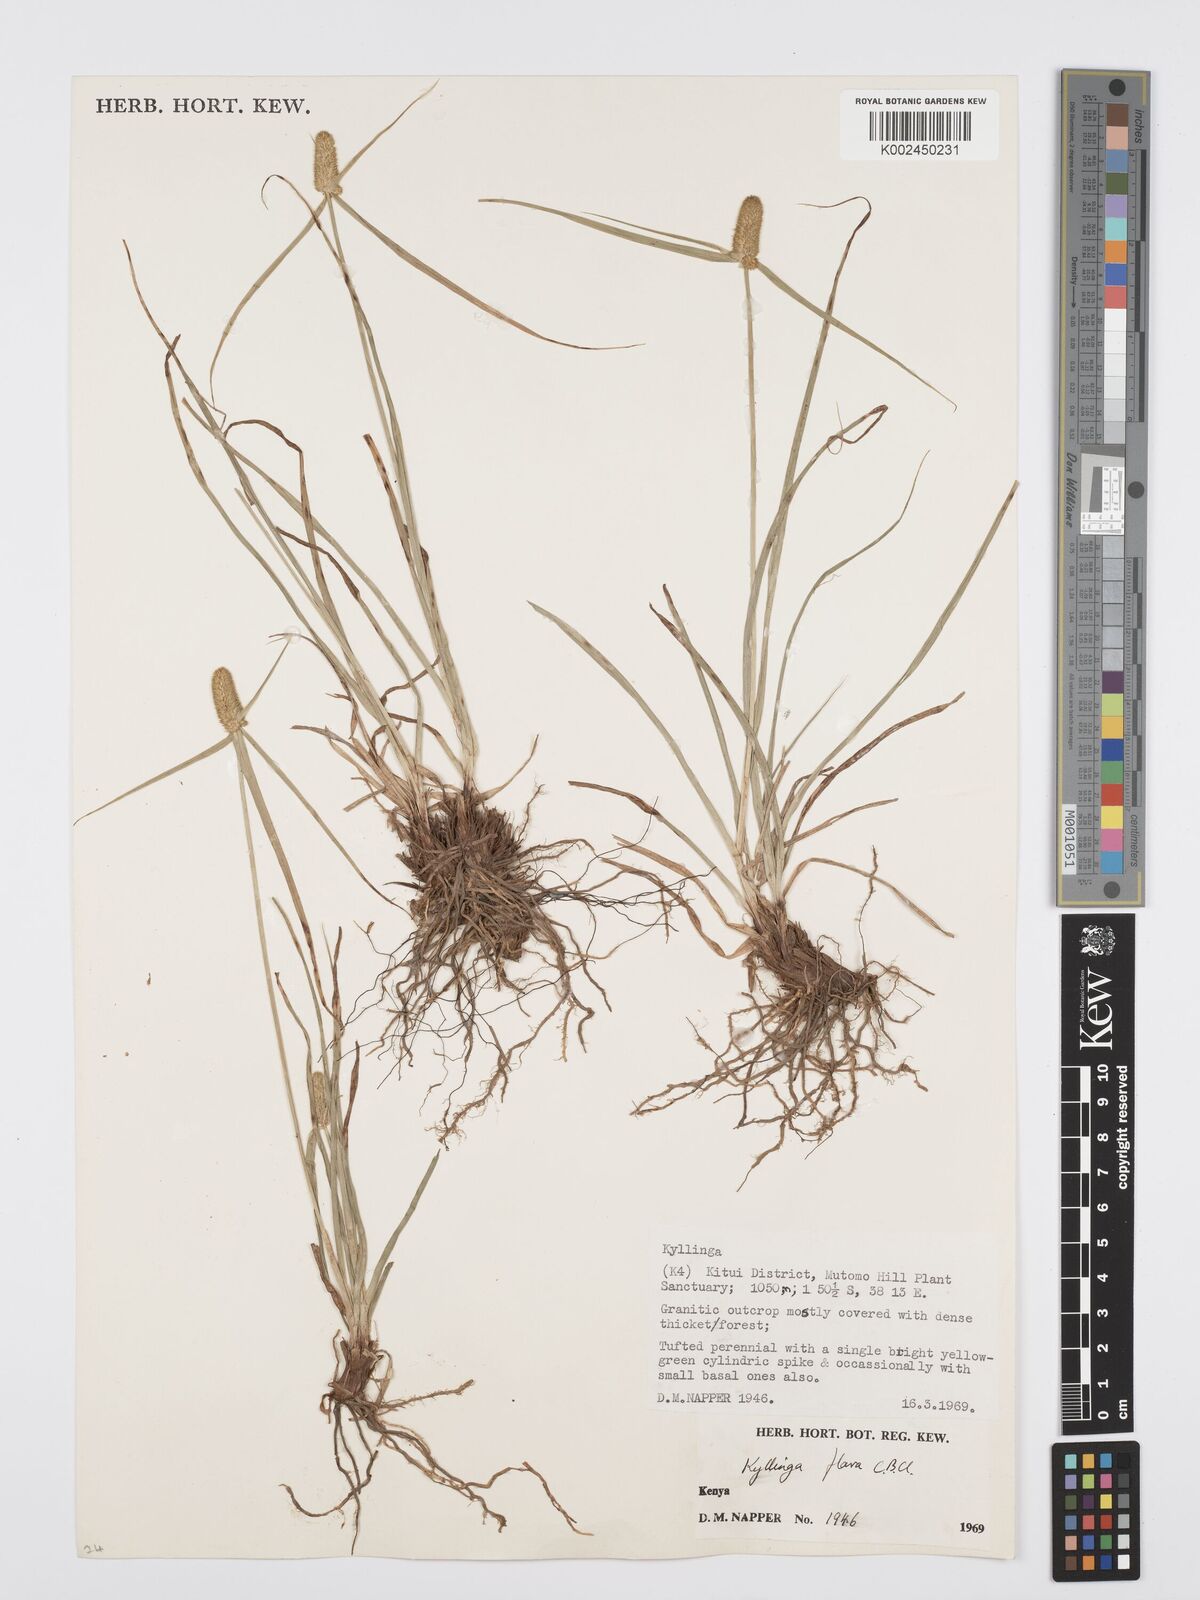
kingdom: Plantae
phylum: Tracheophyta
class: Liliopsida
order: Poales
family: Cyperaceae
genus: Cyperus
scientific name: Cyperus
